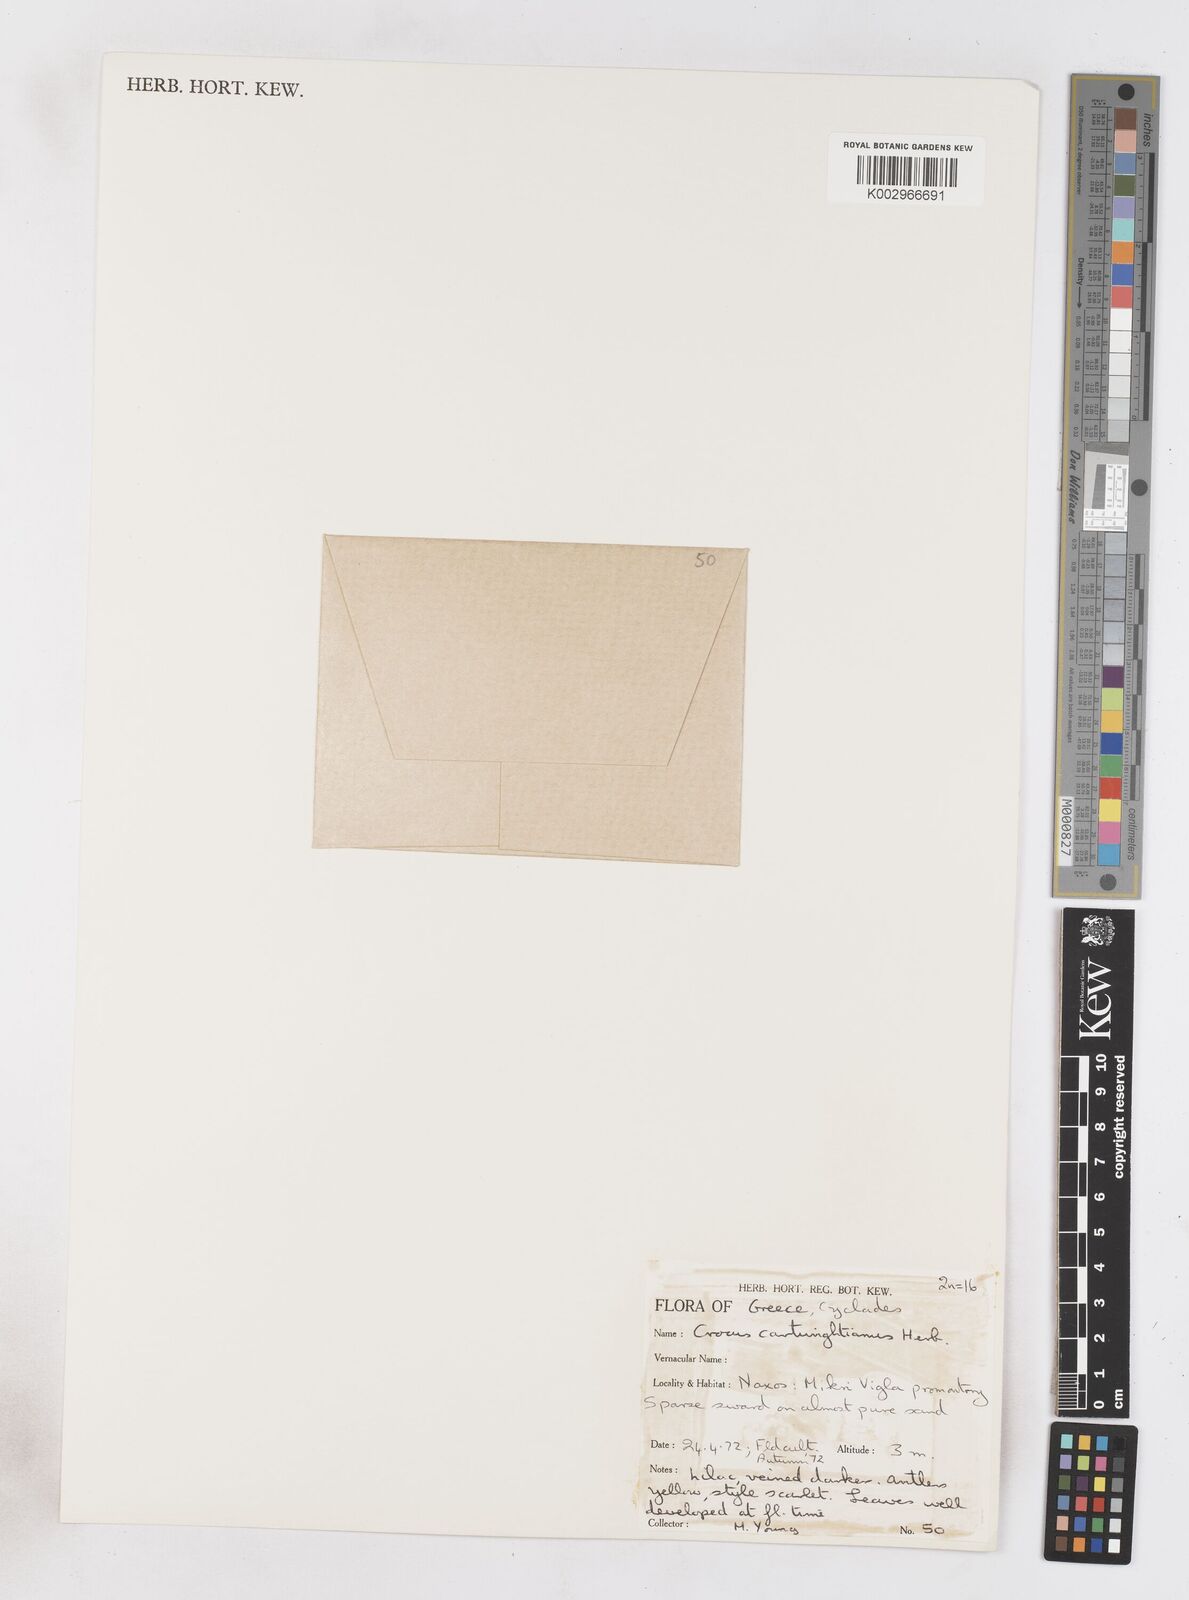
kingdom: Plantae
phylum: Tracheophyta
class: Liliopsida
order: Asparagales
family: Iridaceae
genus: Crocus
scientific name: Crocus cartwrightianus
